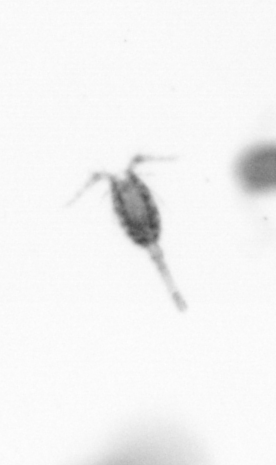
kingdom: Animalia
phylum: Arthropoda
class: Copepoda
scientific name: Copepoda
